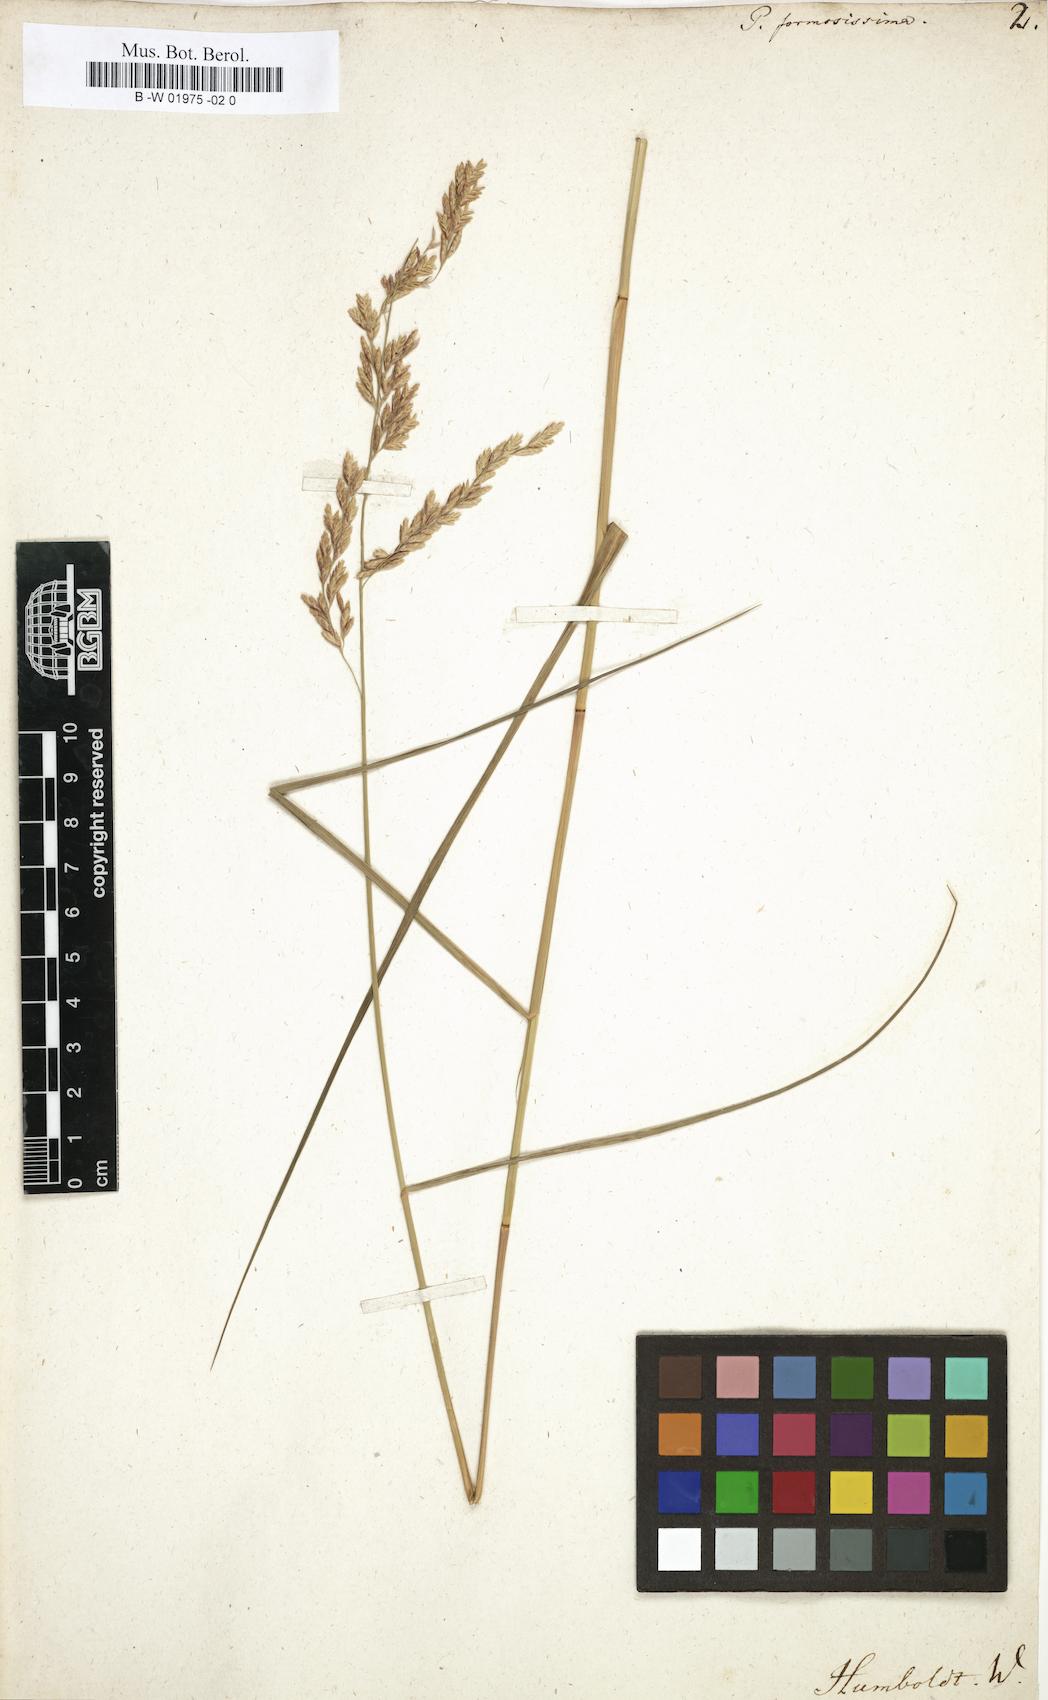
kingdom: Plantae
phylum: Tracheophyta
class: Liliopsida
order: Poales
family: Poaceae
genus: Poa
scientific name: Poa formosissima
